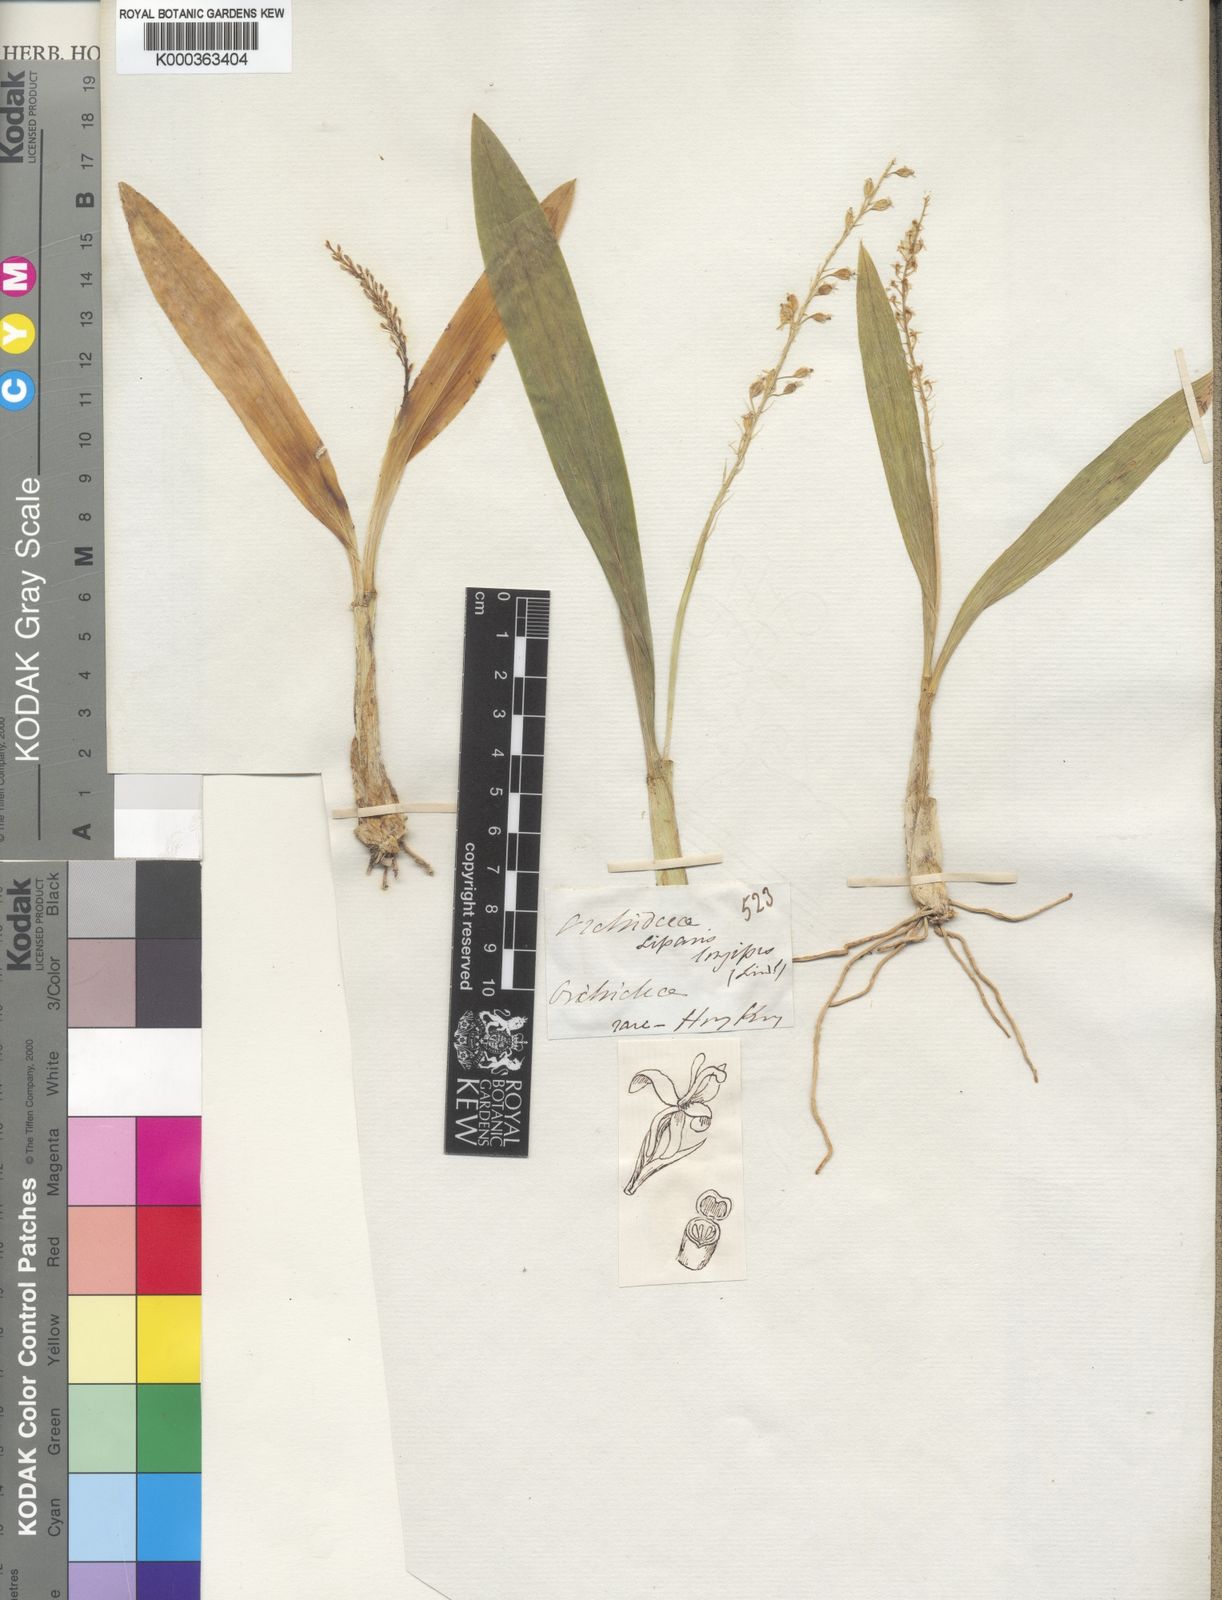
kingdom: Plantae
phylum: Tracheophyta
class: Liliopsida
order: Asparagales
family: Orchidaceae
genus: Liparis
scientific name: Liparis viridiflora
